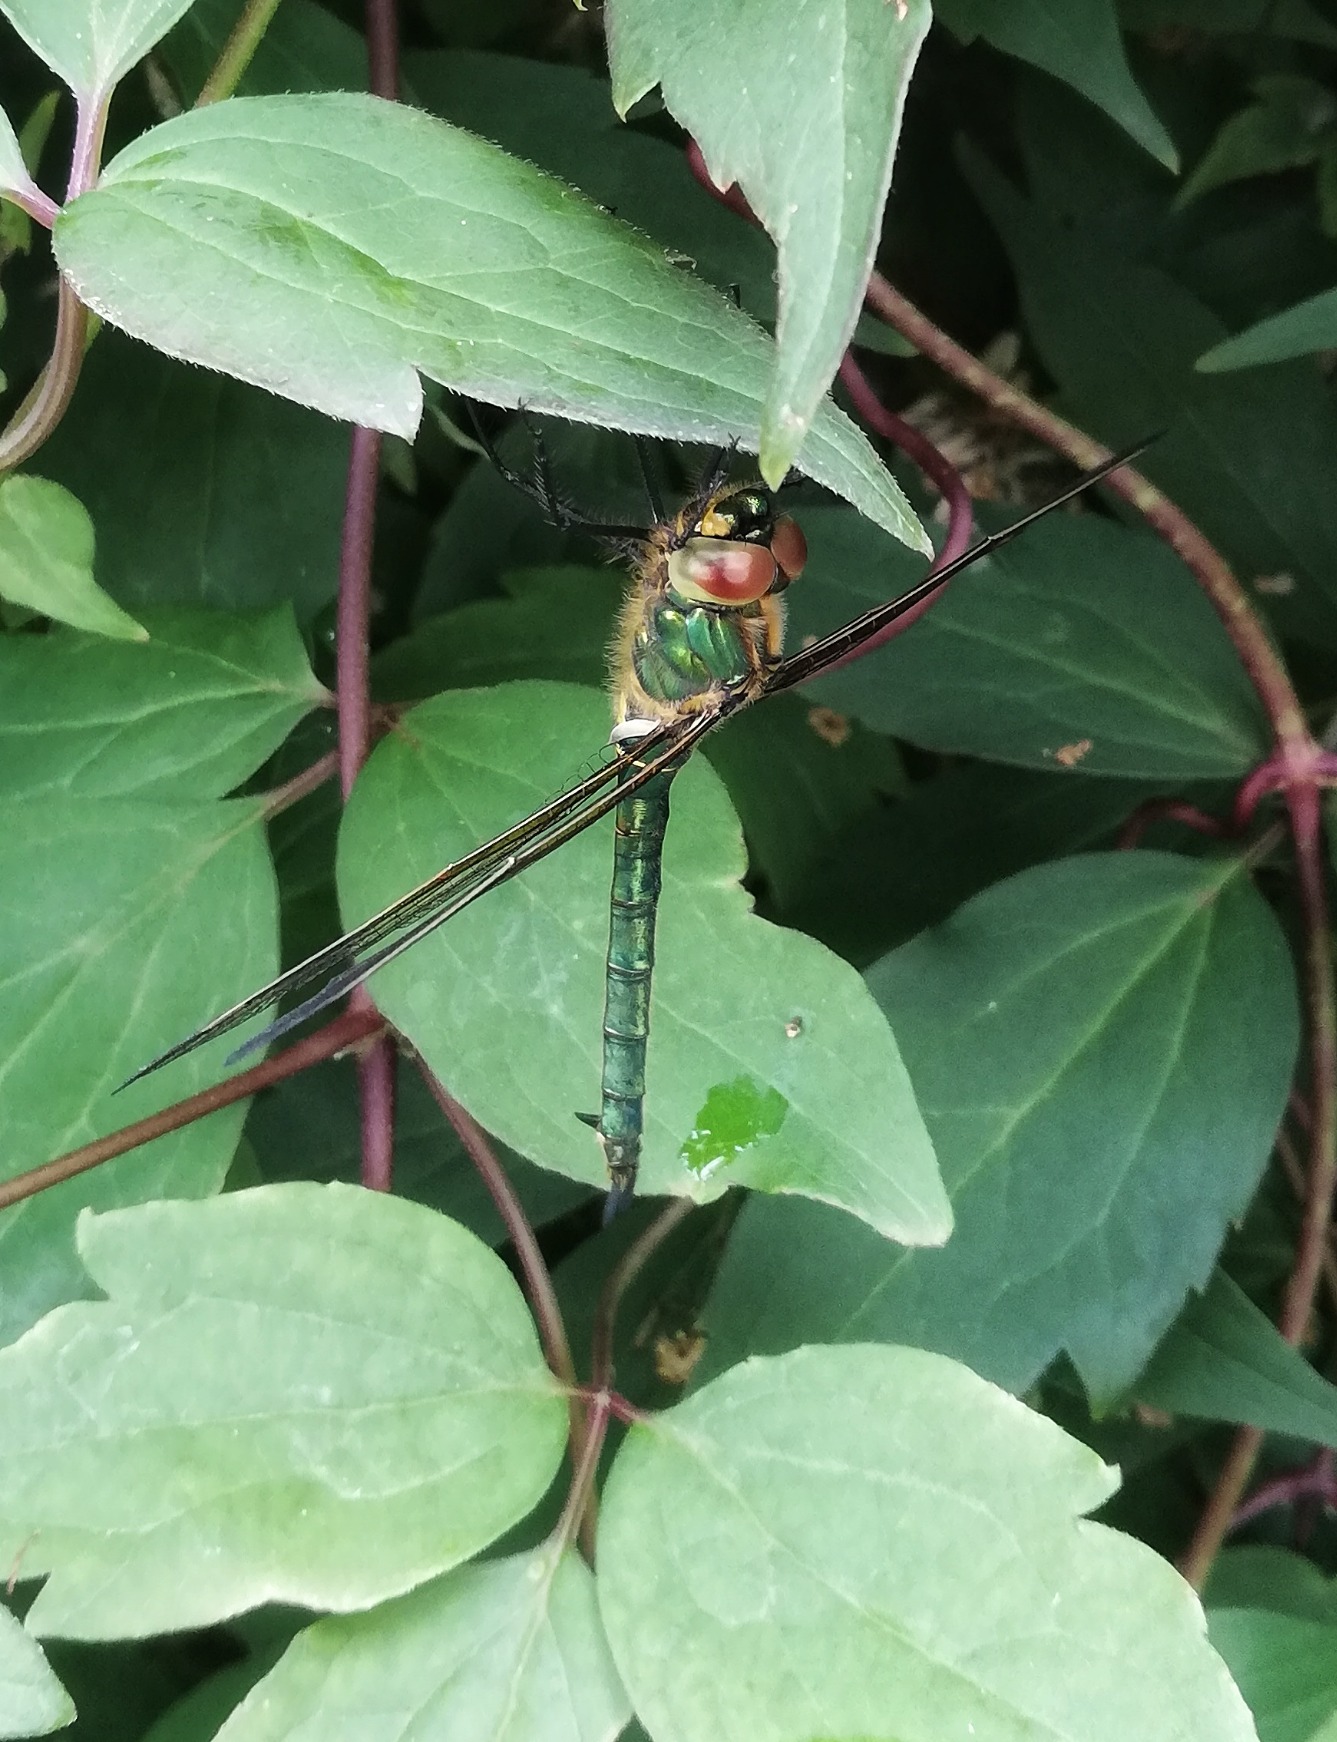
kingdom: Animalia
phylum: Arthropoda
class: Insecta
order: Odonata
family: Corduliidae
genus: Somatochlora
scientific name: Somatochlora metallica
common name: Glinsende smaragdlibel
